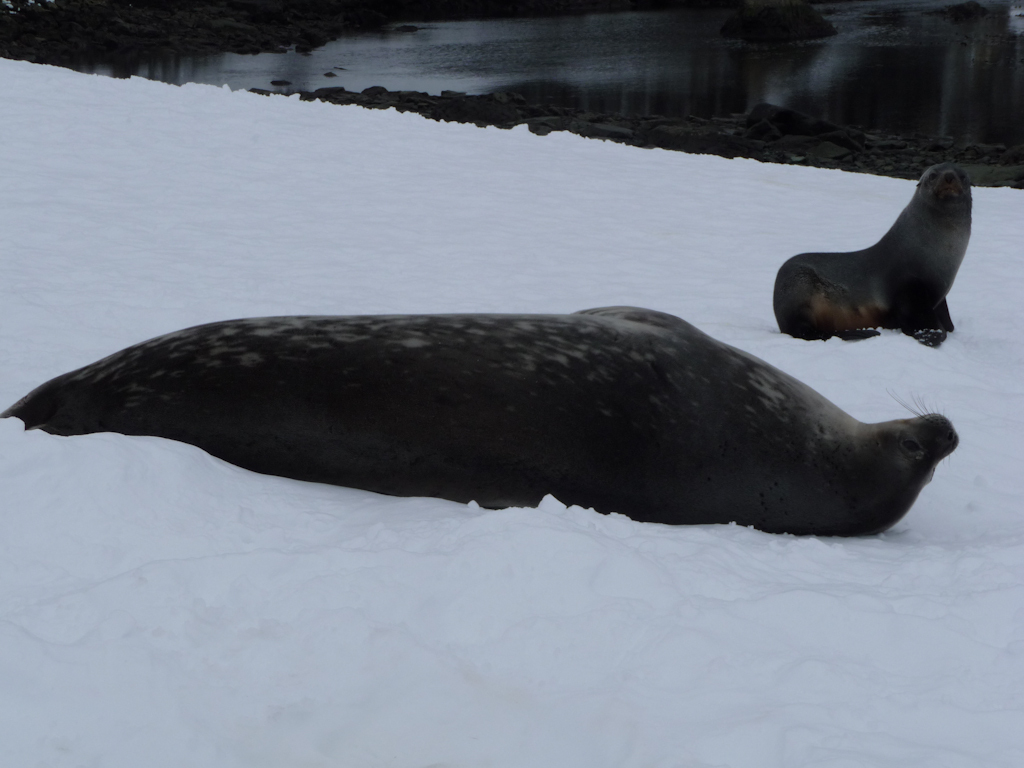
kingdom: Animalia
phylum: Chordata
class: Mammalia
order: Carnivora
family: Phocidae
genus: Leptonychotes
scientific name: Leptonychotes weddellii
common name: Weddell Seal
